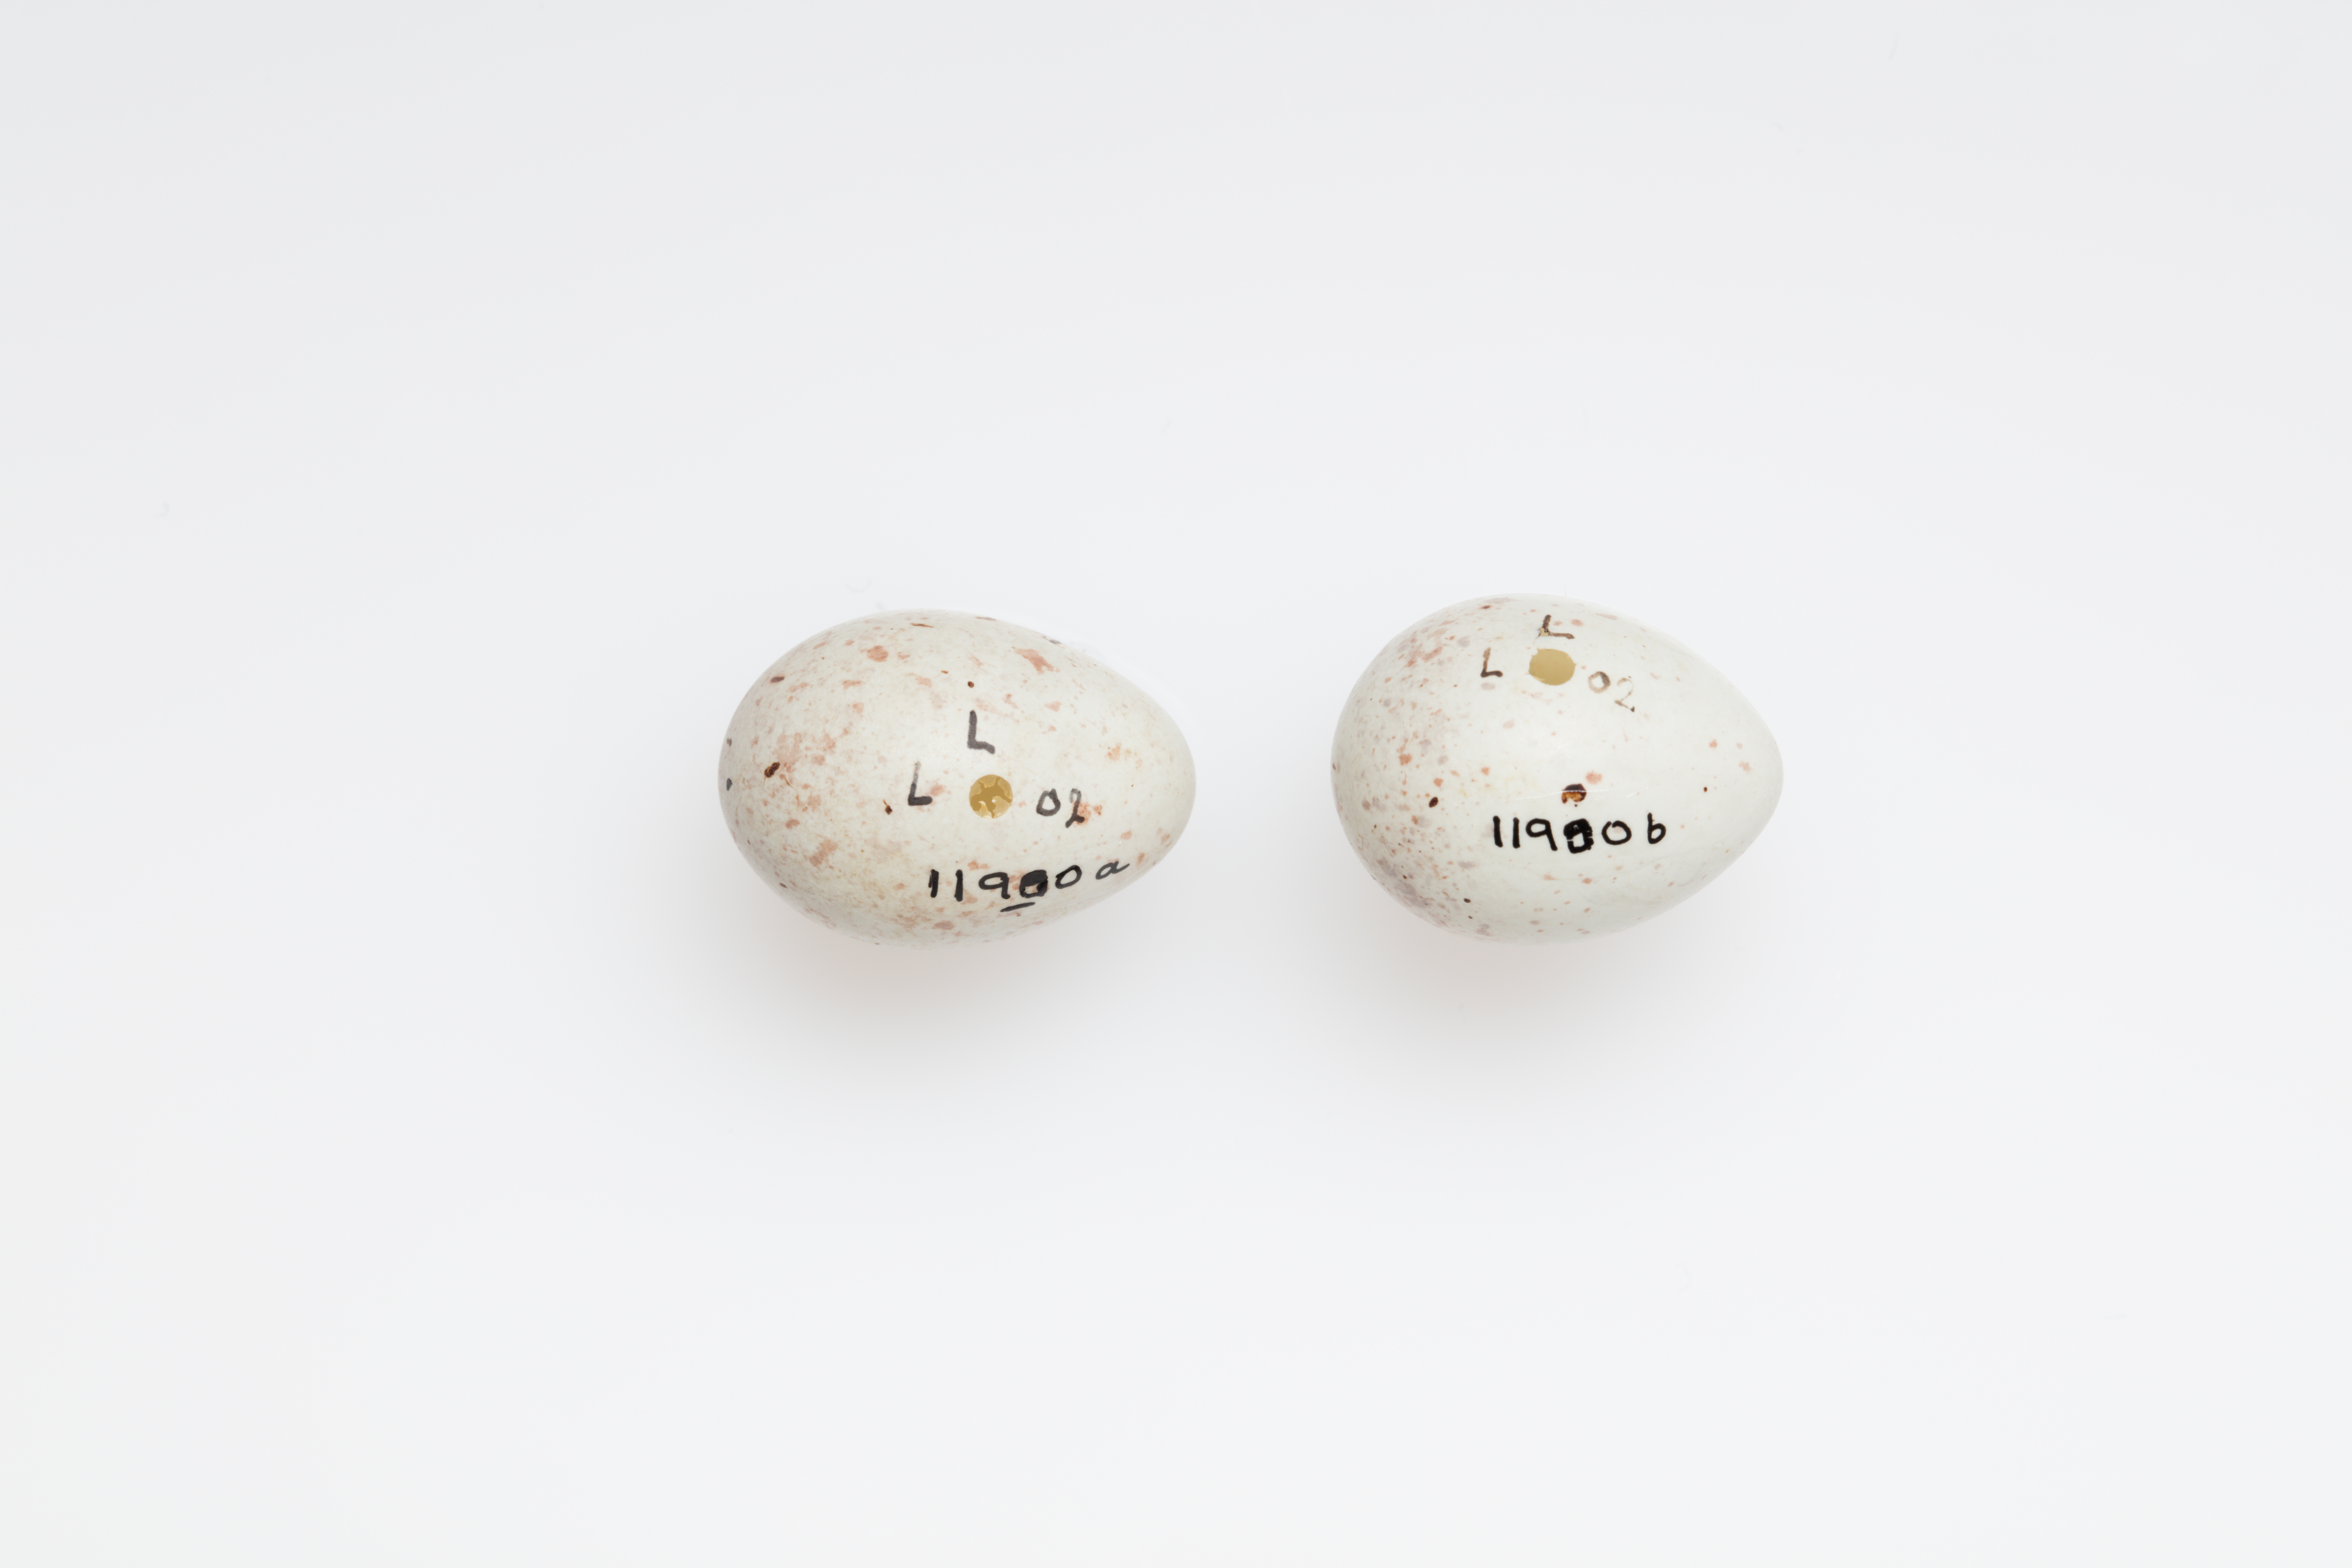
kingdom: Animalia
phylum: Chordata
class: Aves
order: Passeriformes
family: Fringillidae
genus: Linaria
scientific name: Linaria cannabina
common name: Common linnet
